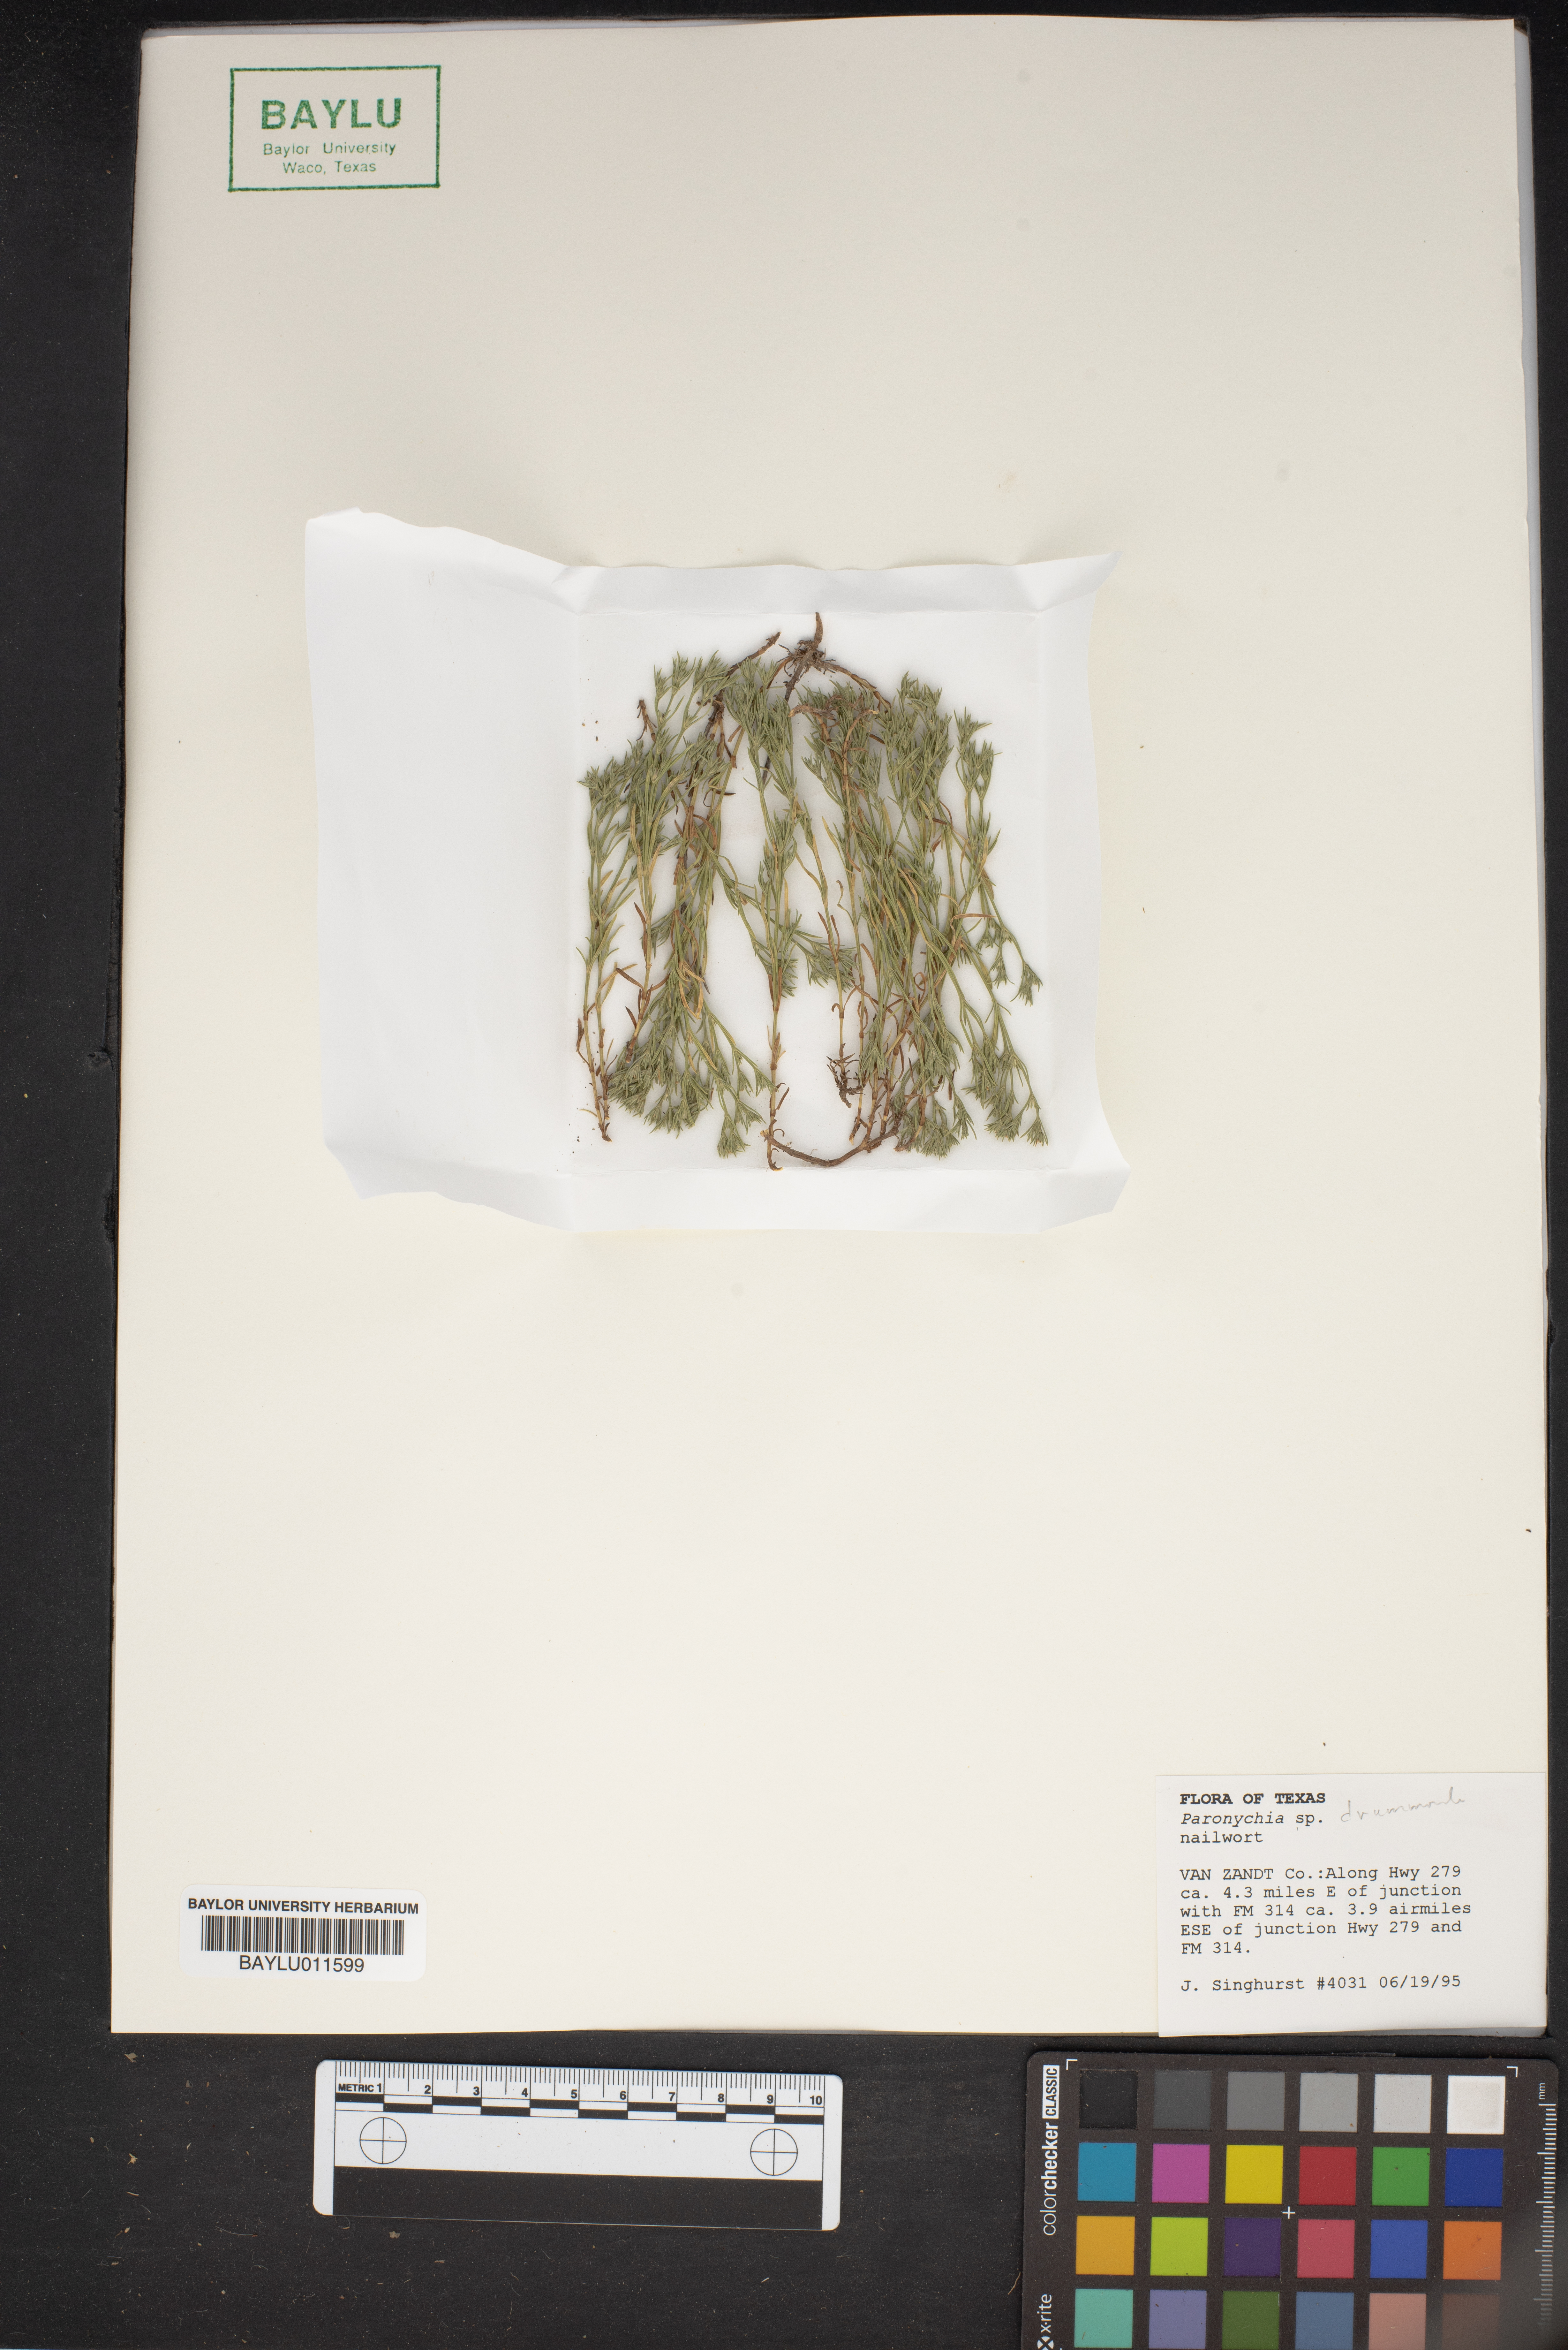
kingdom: Plantae
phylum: Tracheophyta
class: Magnoliopsida
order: Caryophyllales
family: Caryophyllaceae
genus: Paronychia
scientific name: Paronychia drummondii
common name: Drummond's nailwort
